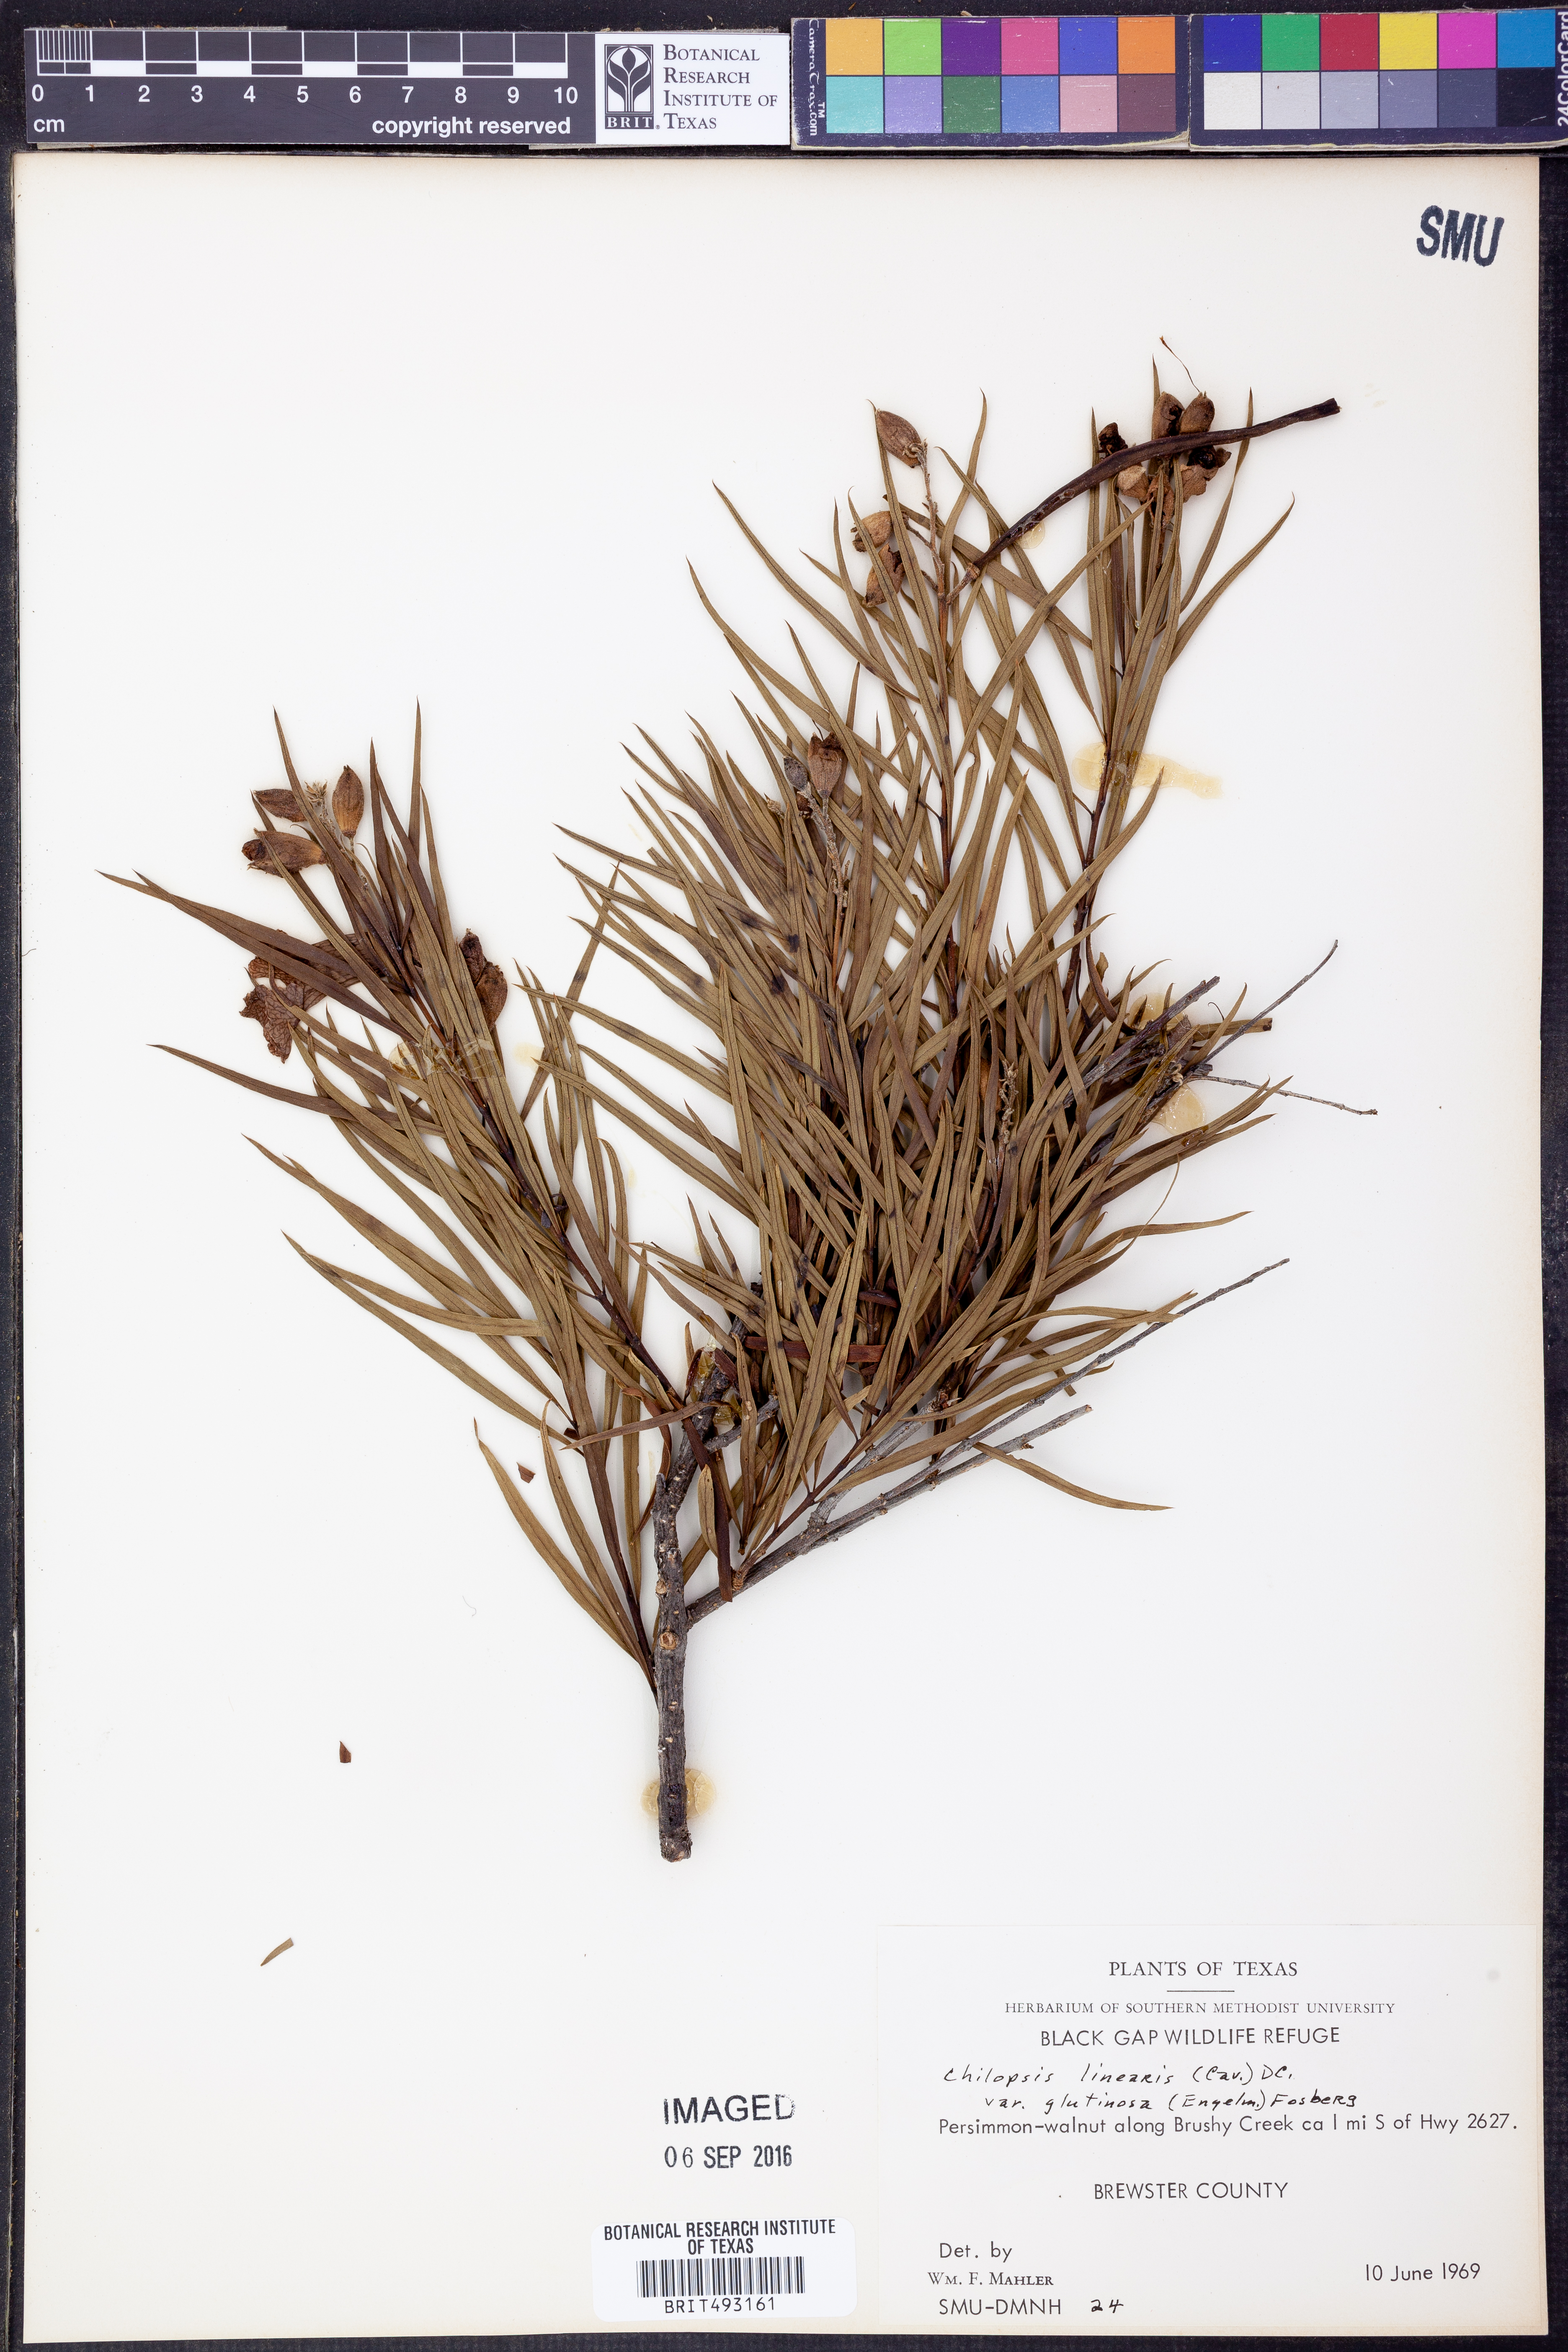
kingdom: Plantae
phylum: Tracheophyta
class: Magnoliopsida
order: Lamiales
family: Bignoniaceae
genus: Chilopsis
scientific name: Chilopsis linearis
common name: Desert-willow
